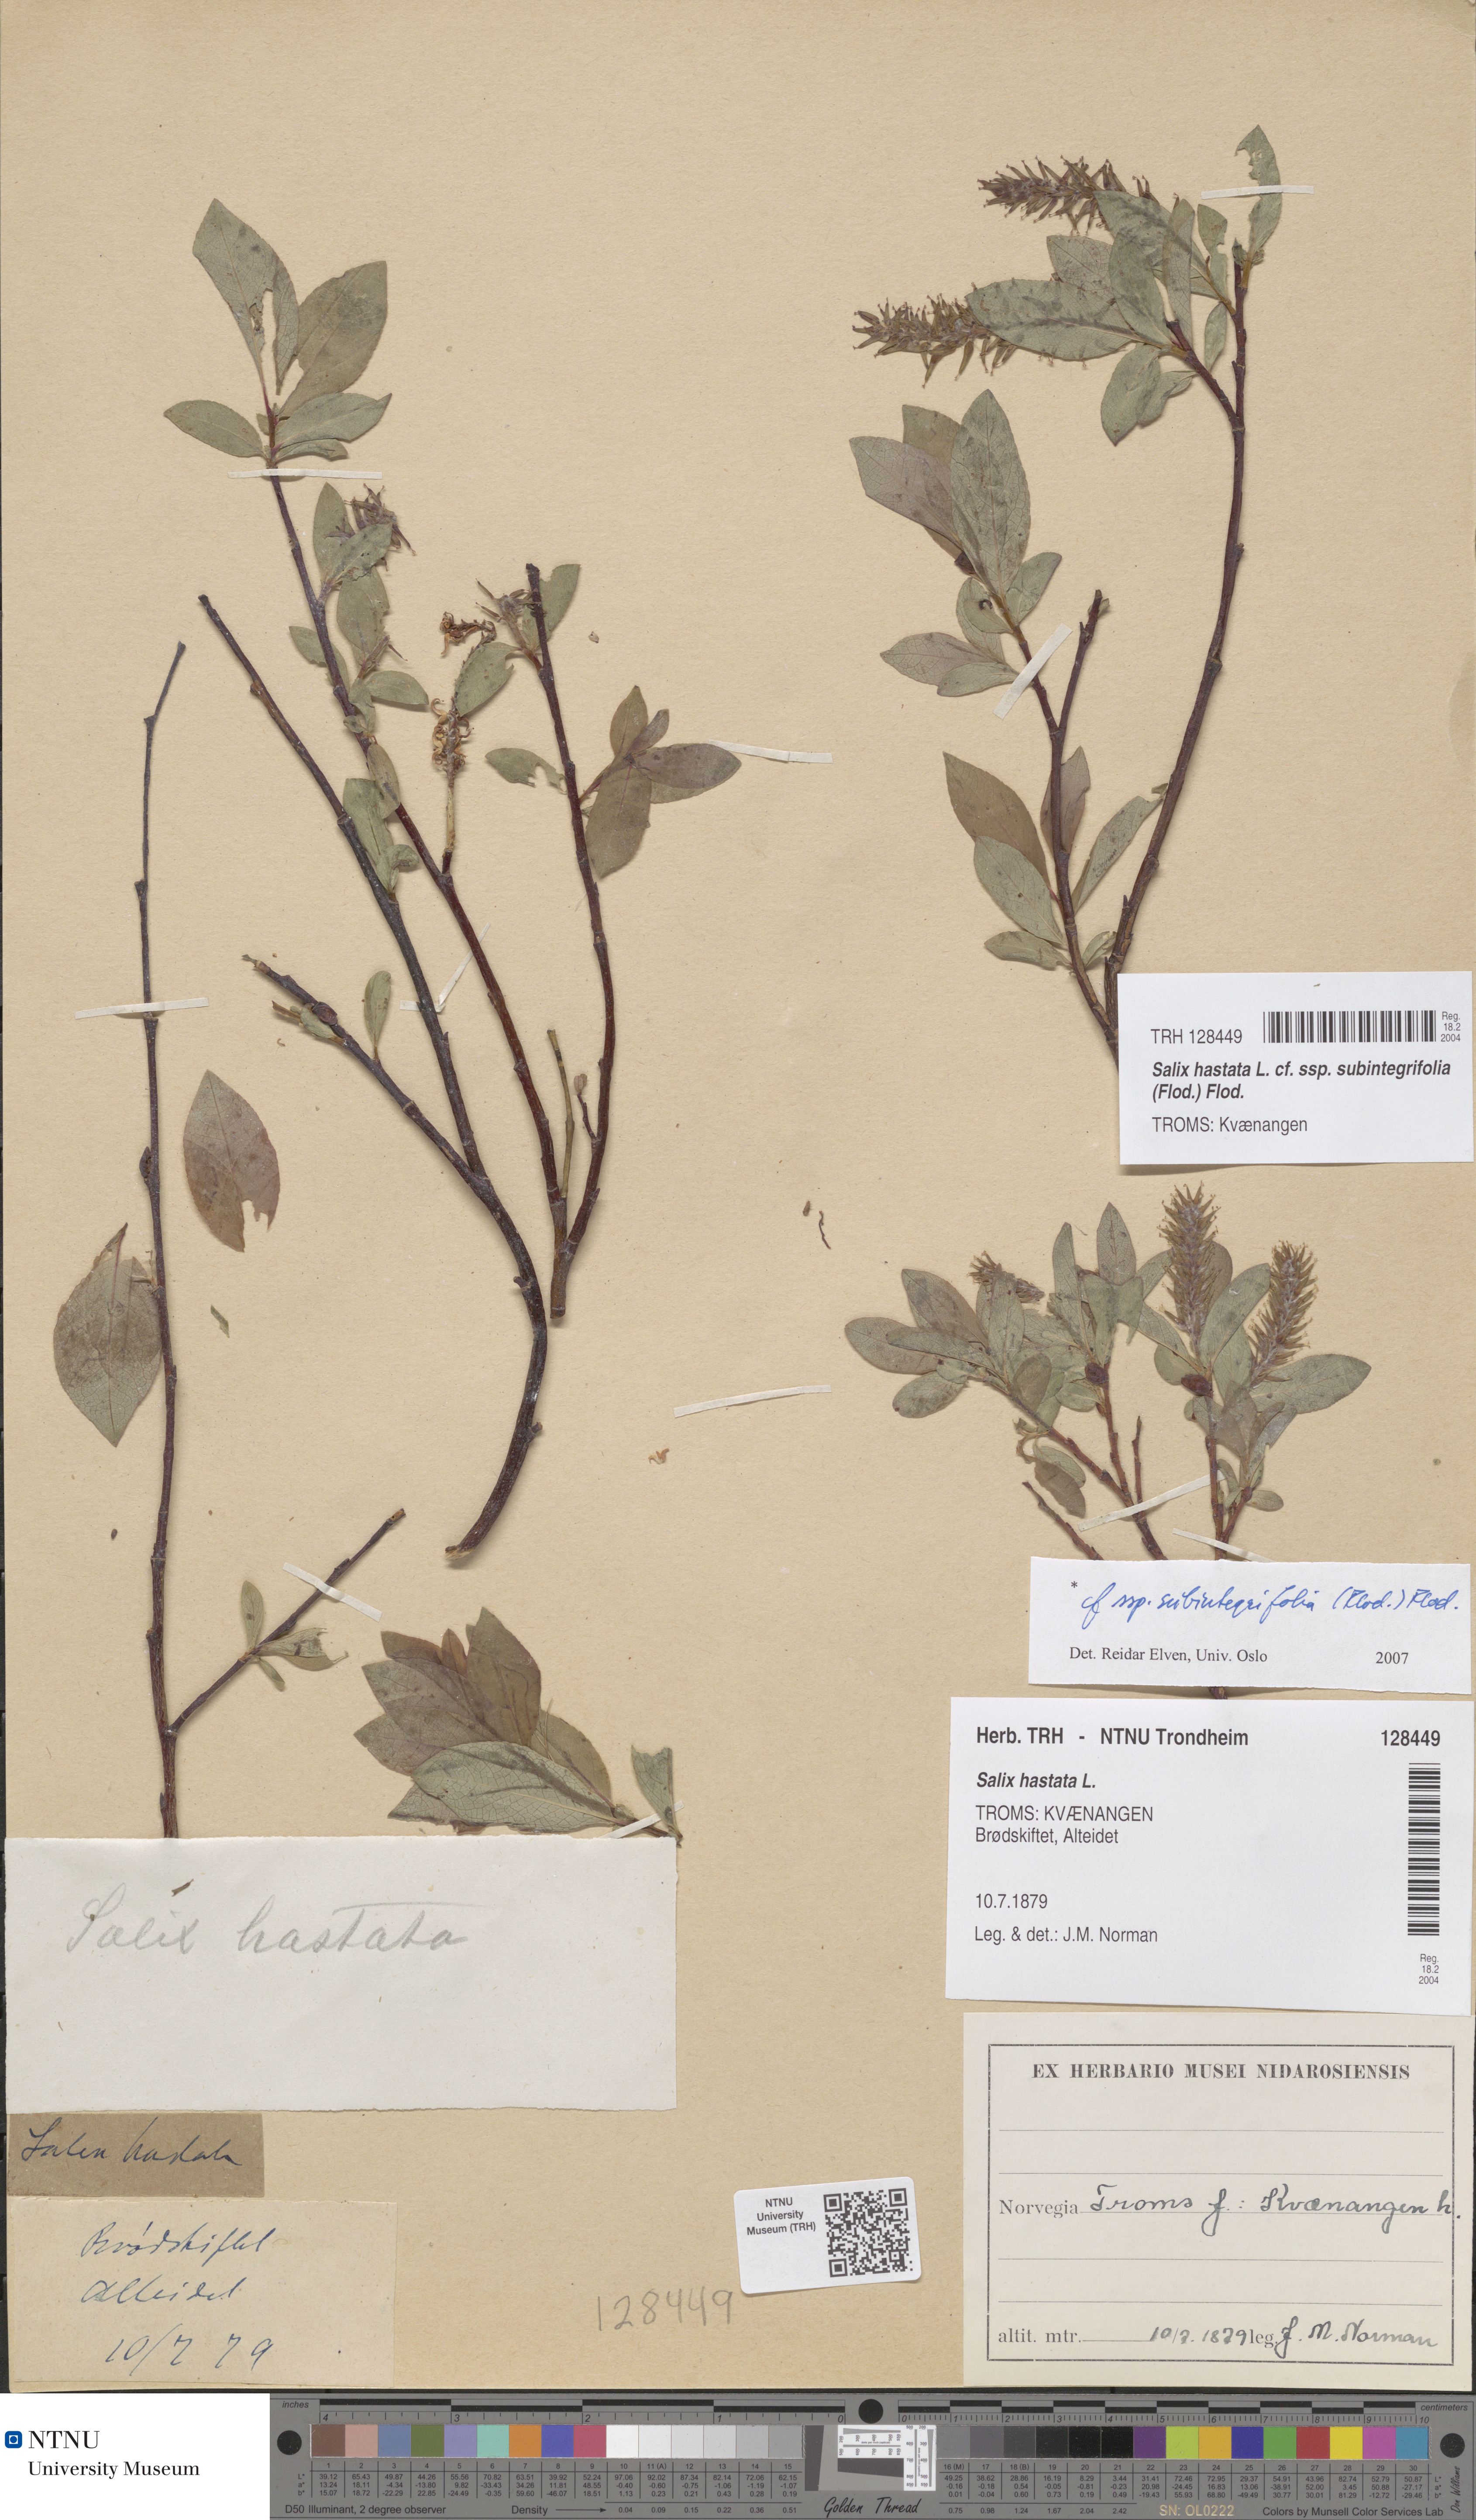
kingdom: Plantae
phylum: Tracheophyta
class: Magnoliopsida
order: Malpighiales
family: Salicaceae
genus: Salix
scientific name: Salix hastata
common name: Halberd willow
